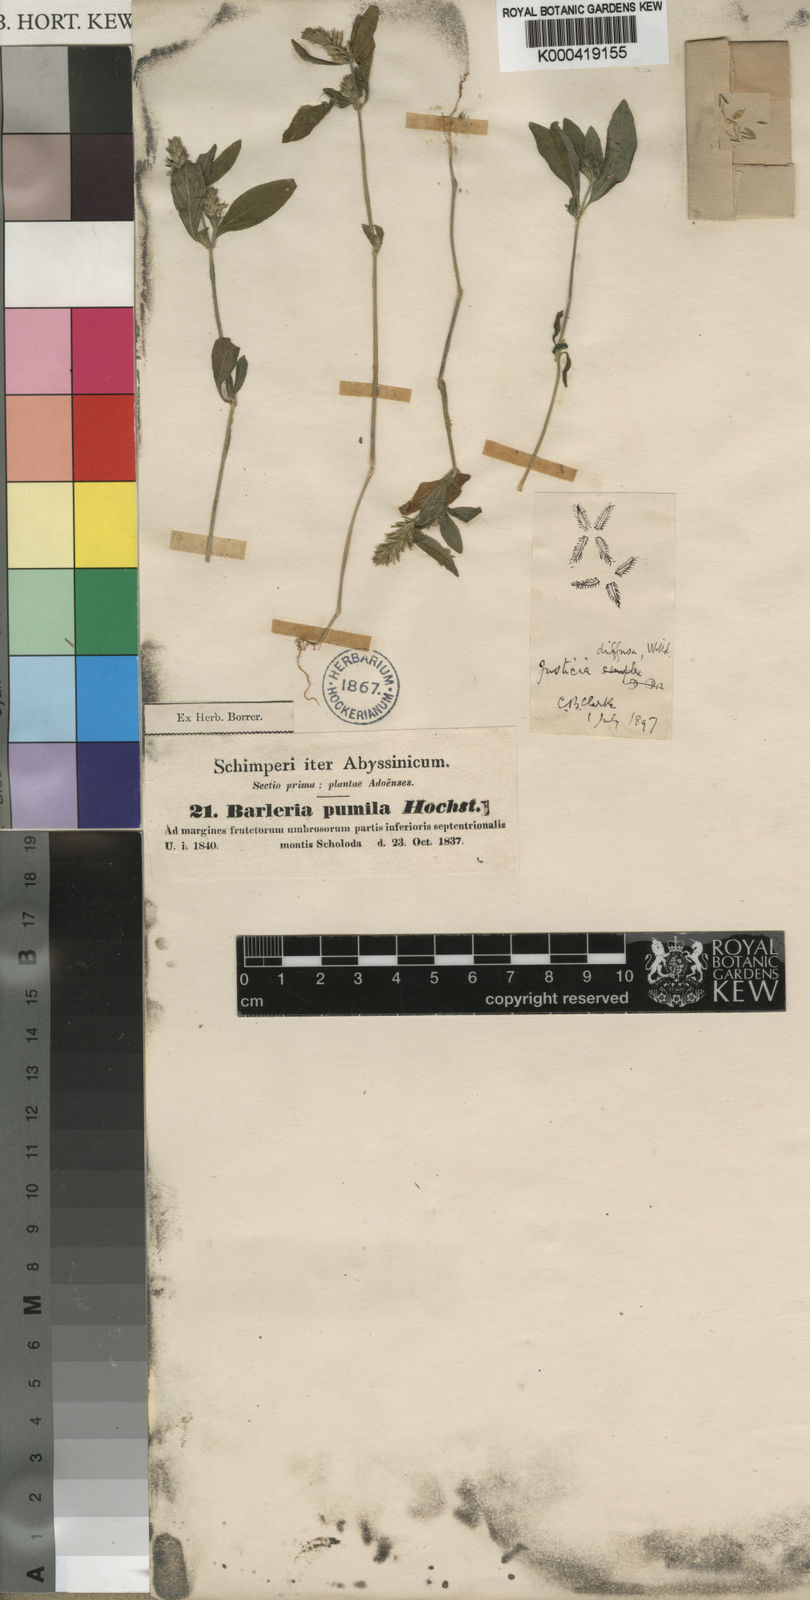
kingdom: Plantae
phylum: Tracheophyta
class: Magnoliopsida
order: Lamiales
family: Acanthaceae
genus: Rostellularia
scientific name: Rostellularia diffusa
